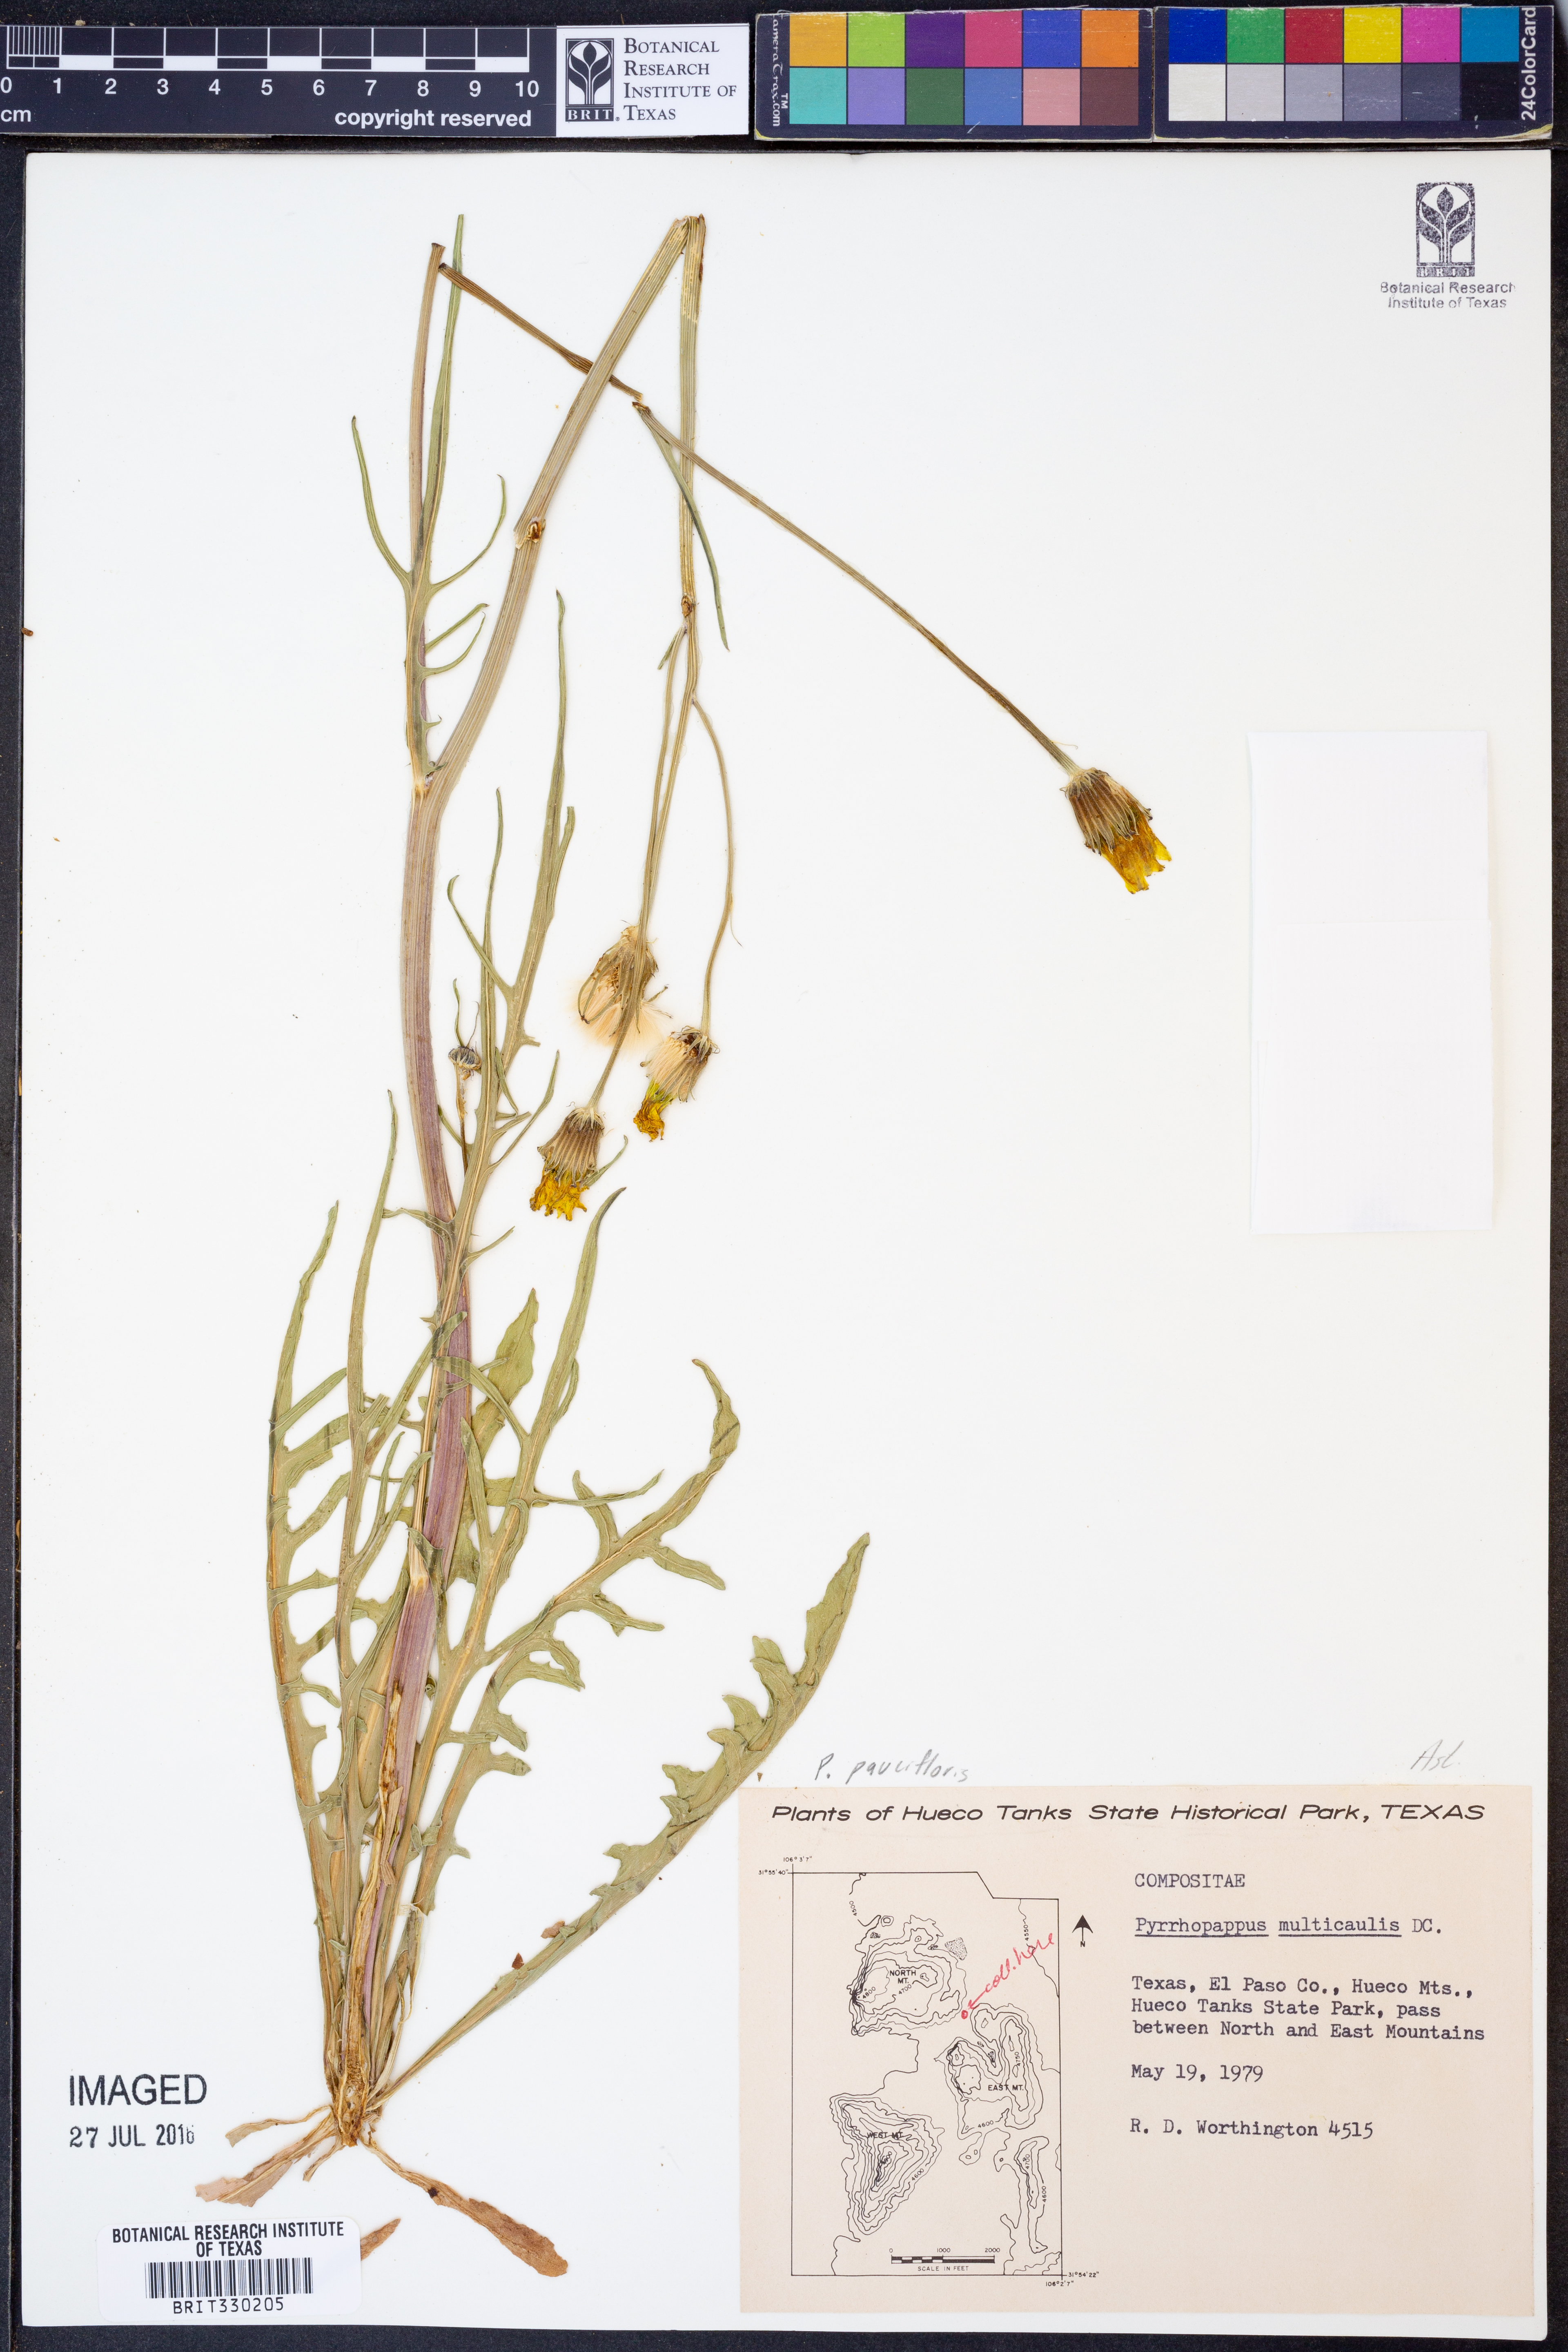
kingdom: Plantae
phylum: Tracheophyta
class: Magnoliopsida
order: Asterales
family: Asteraceae
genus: Pyrrhopappus
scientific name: Pyrrhopappus pauciflorus
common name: Texas false dandelion
